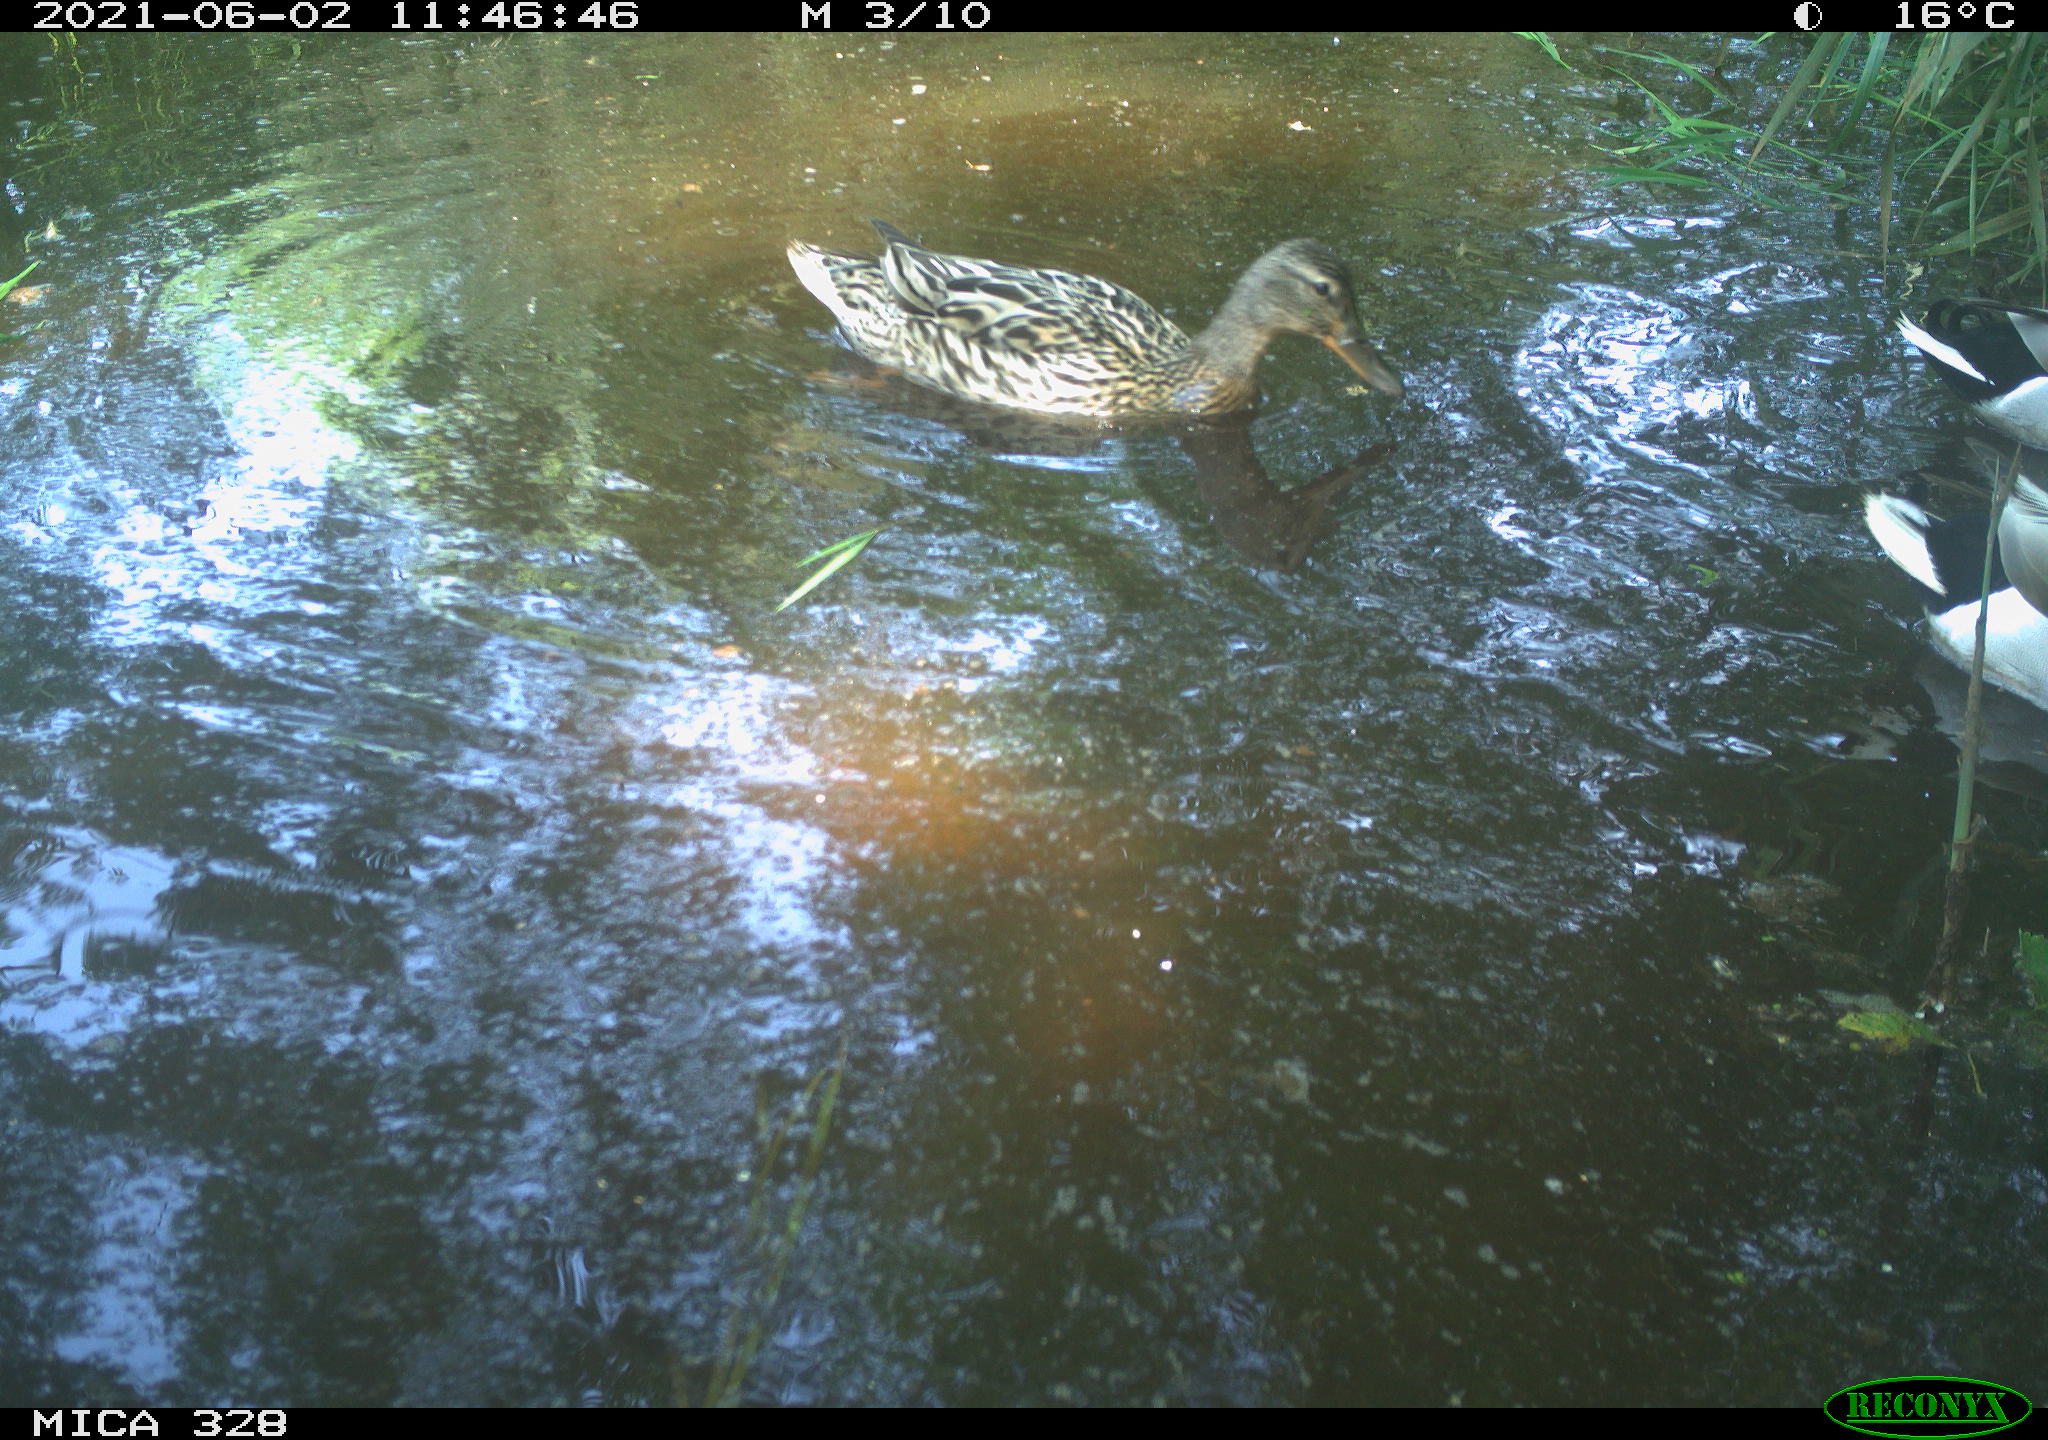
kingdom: Animalia
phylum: Chordata
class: Aves
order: Anseriformes
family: Anatidae
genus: Anas
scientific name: Anas platyrhynchos
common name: Mallard
